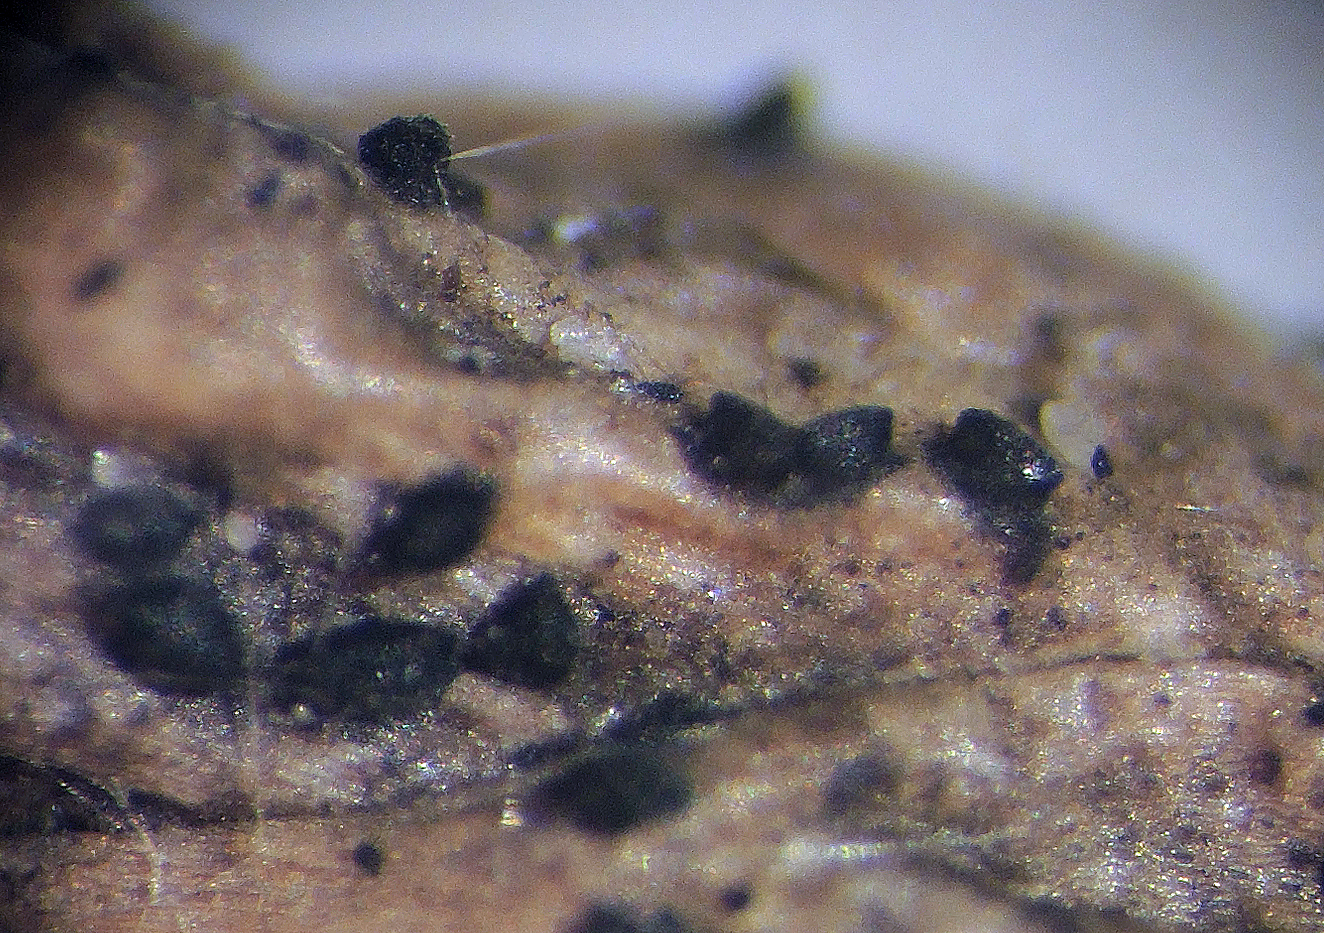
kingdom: Fungi
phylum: Ascomycota
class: Dothideomycetes
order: Mytilinidiales
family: Gloniaceae
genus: Glonium
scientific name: Glonium nitidum
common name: enebær-kulmusling
